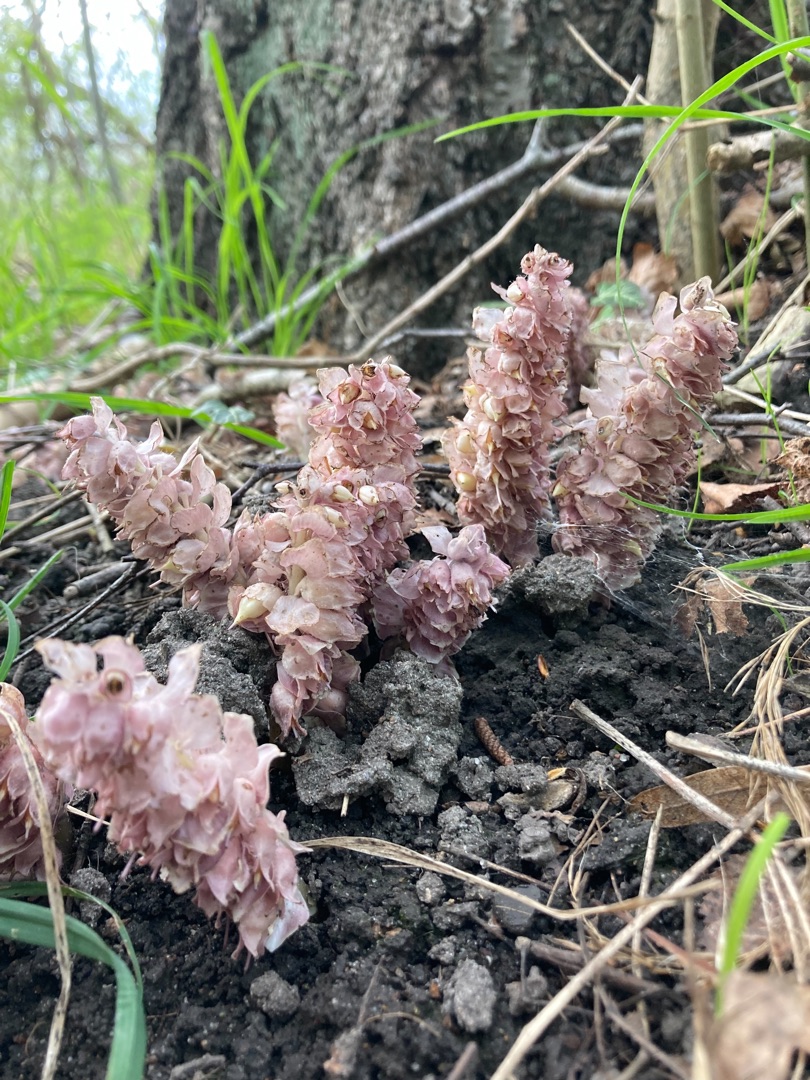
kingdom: Plantae
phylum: Tracheophyta
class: Magnoliopsida
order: Lamiales
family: Orobanchaceae
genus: Lathraea
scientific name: Lathraea squamaria
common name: Skælrod
